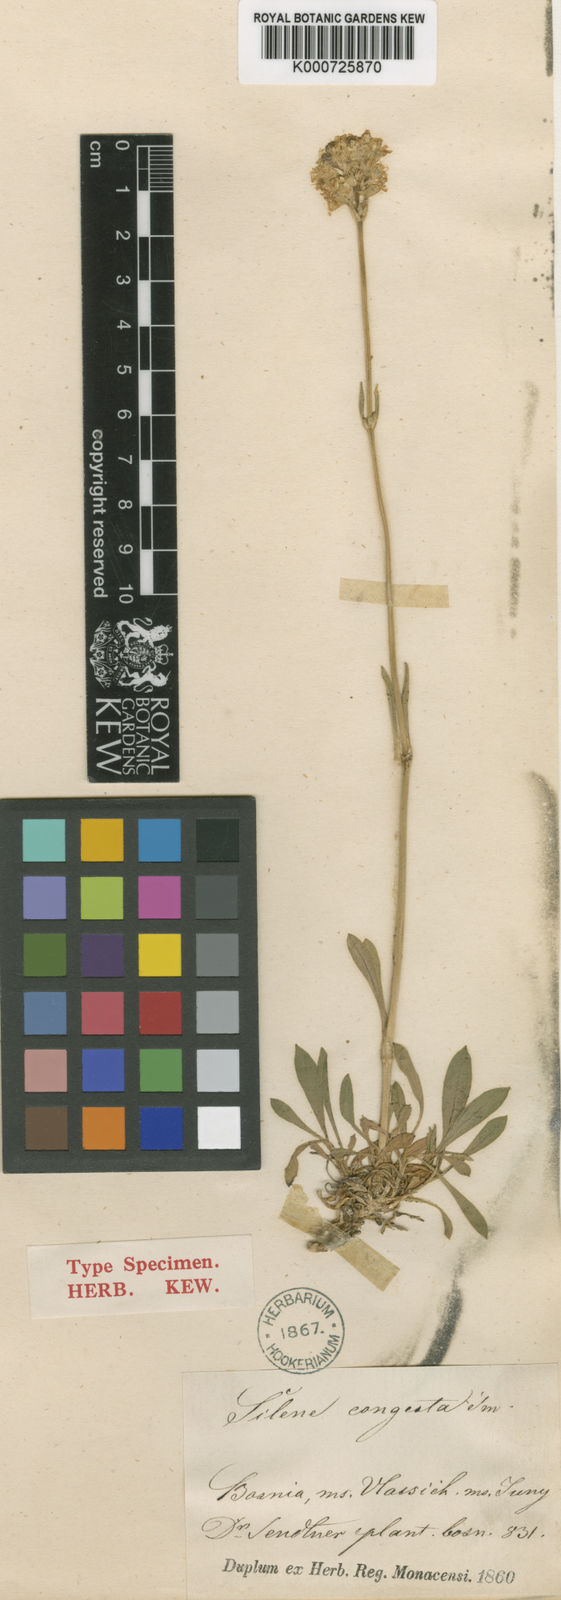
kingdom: Plantae
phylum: Tracheophyta
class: Magnoliopsida
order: Caryophyllales
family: Caryophyllaceae
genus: Silene
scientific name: Silene sendtneri
